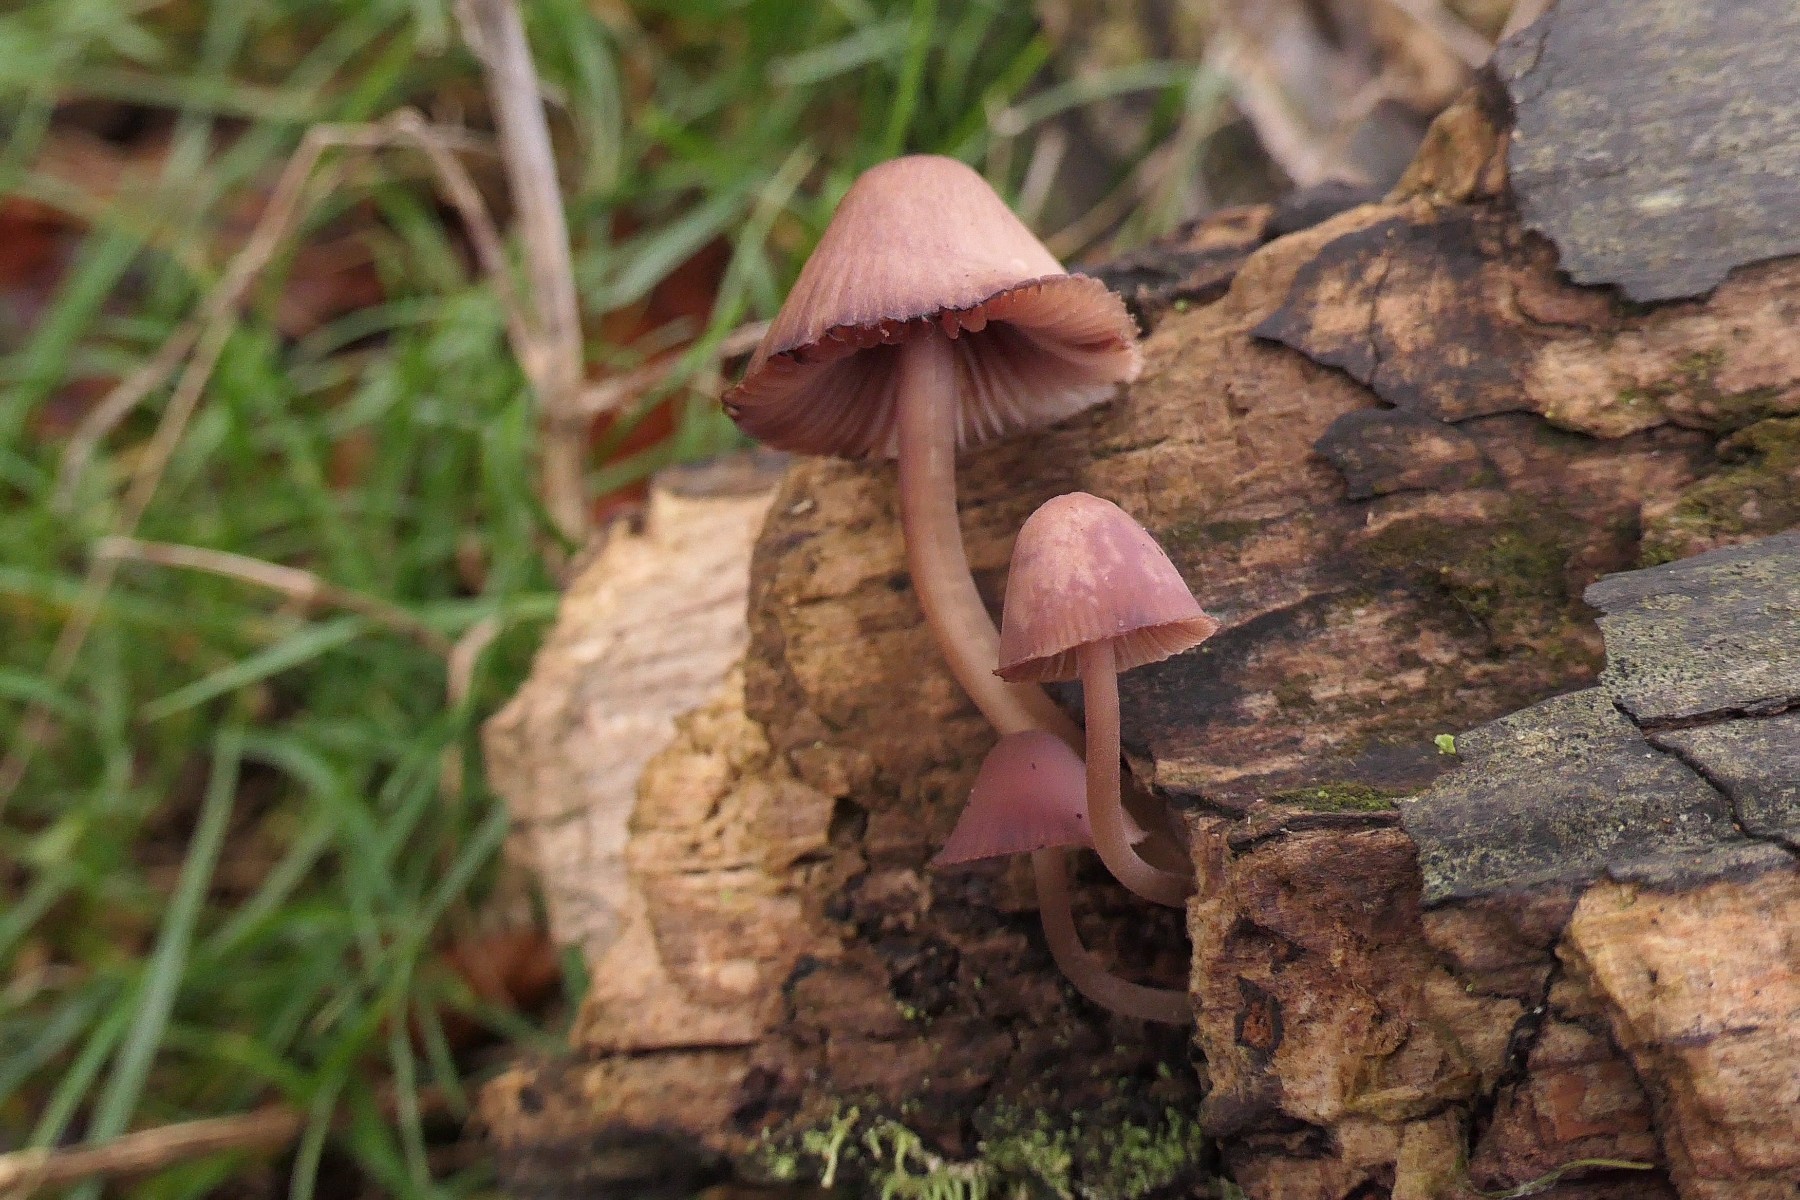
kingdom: Fungi
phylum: Basidiomycota
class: Agaricomycetes
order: Agaricales
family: Mycenaceae
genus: Mycena
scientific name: Mycena haematopus
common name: blødende huesvamp
